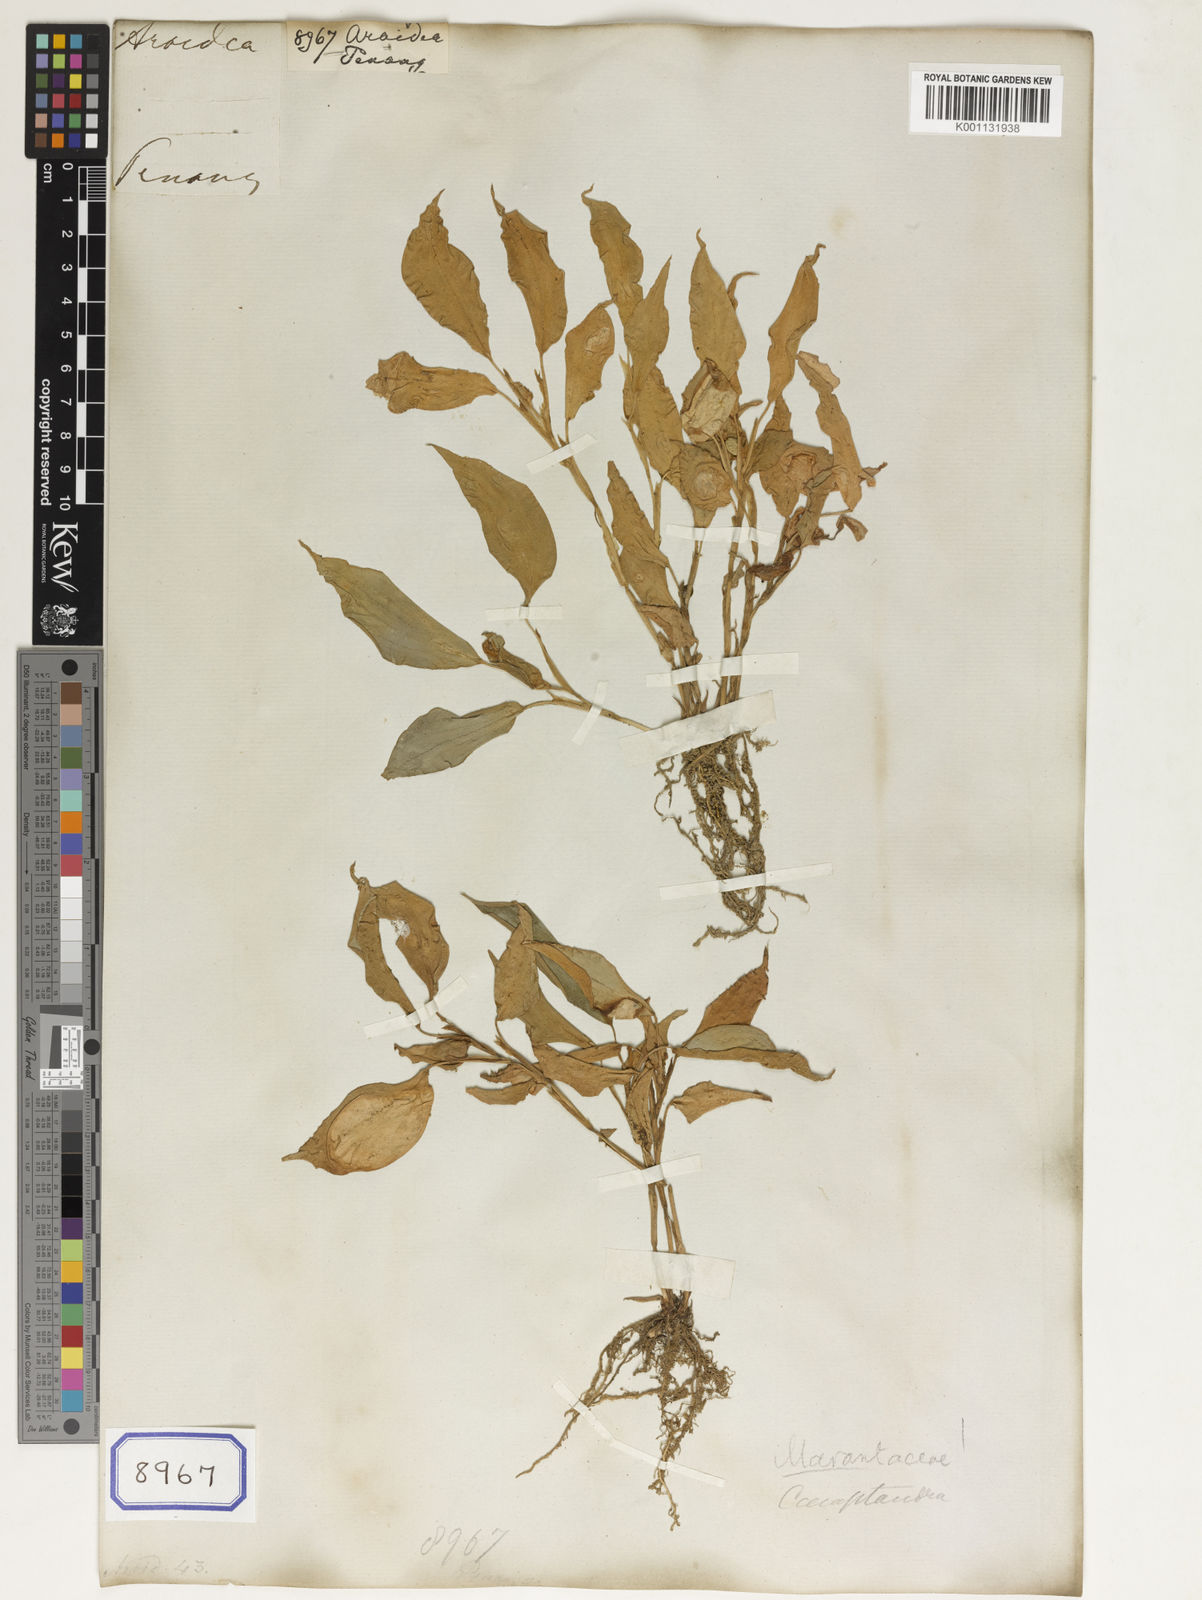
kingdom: Plantae
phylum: Tracheophyta
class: Liliopsida
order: Alismatales
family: Araceae
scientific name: Araceae
